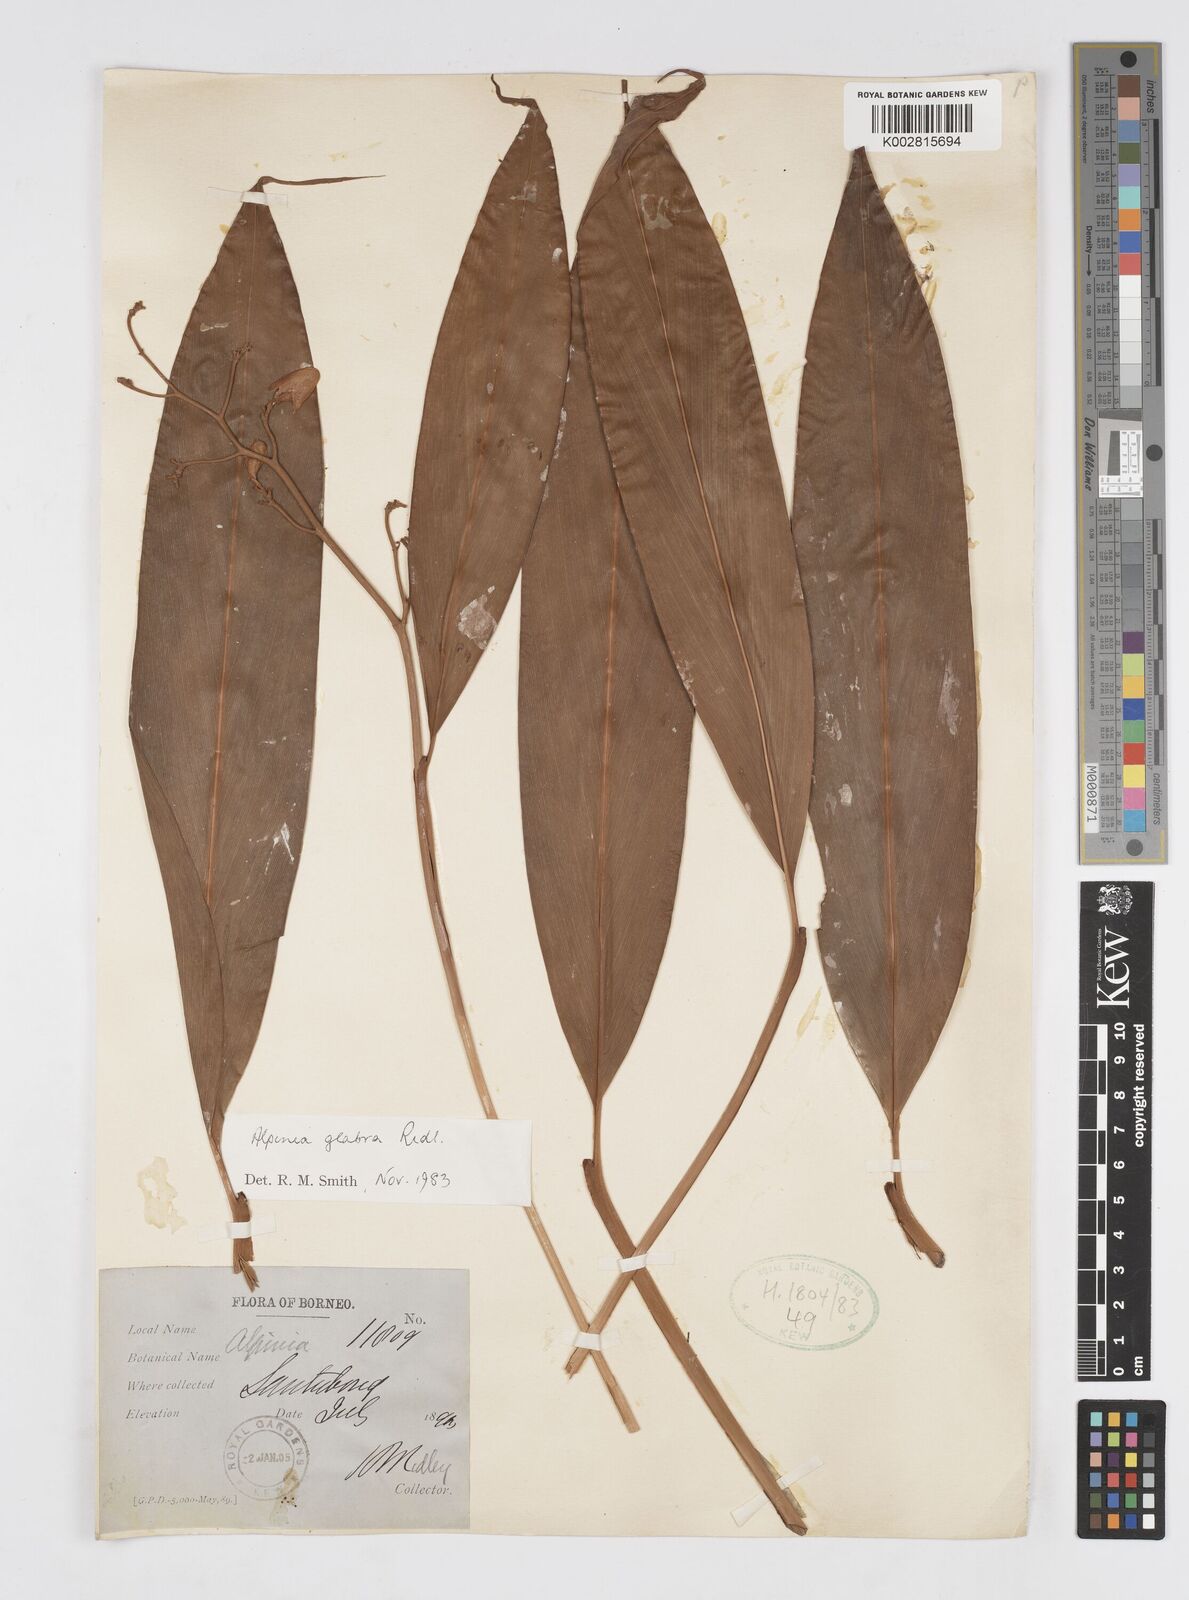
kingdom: Plantae
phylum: Tracheophyta
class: Liliopsida
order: Zingiberales
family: Zingiberaceae
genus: Alpinia
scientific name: Alpinia glabra
